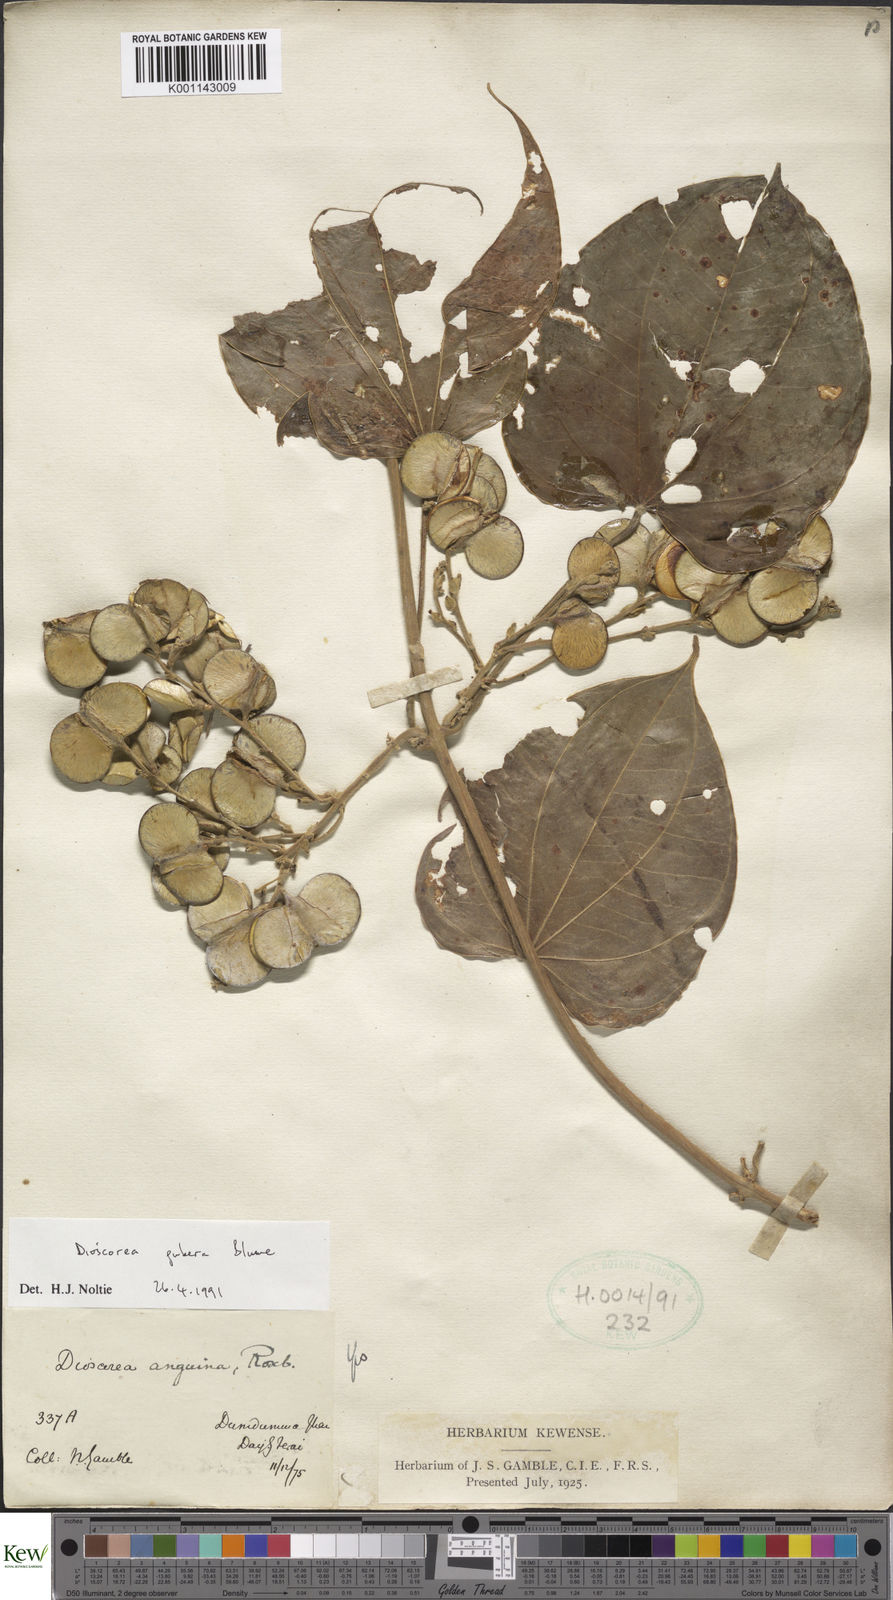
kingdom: Plantae
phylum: Tracheophyta
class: Liliopsida
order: Dioscoreales
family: Dioscoreaceae
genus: Dioscorea
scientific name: Dioscorea pubera
